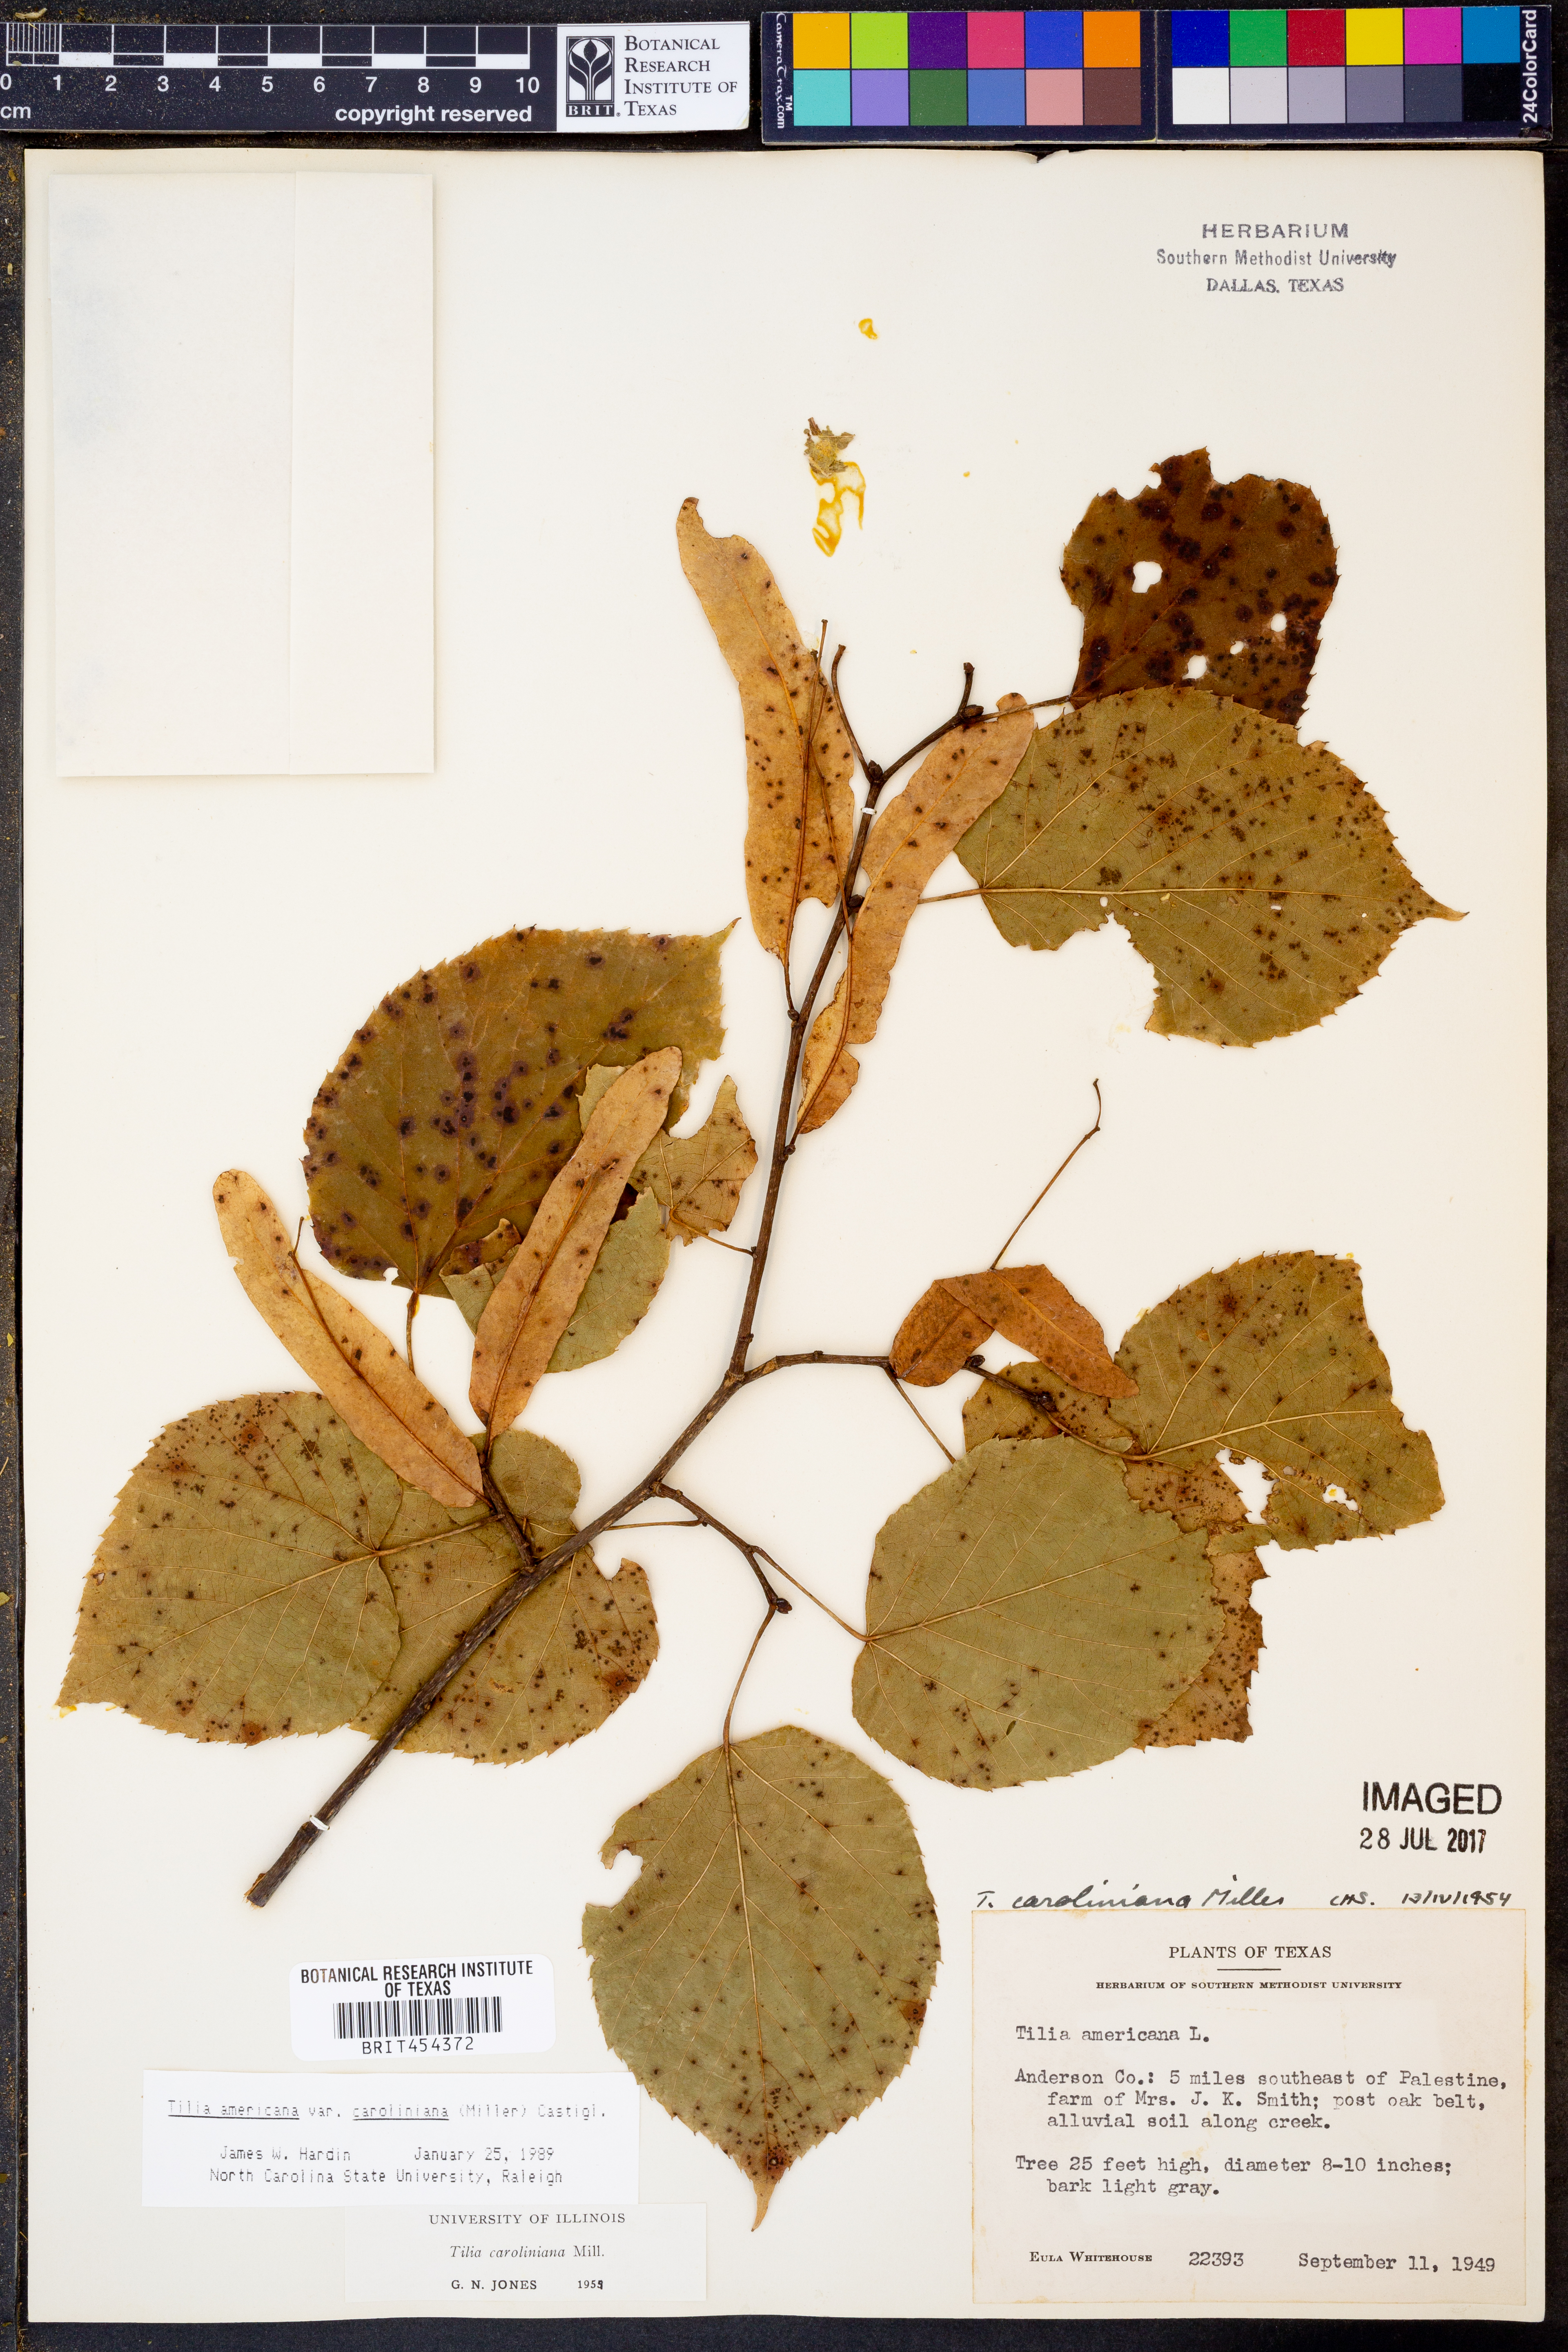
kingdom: Plantae
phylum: Tracheophyta
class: Magnoliopsida
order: Malvales
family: Malvaceae
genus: Tilia
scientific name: Tilia americana
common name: Basswood
